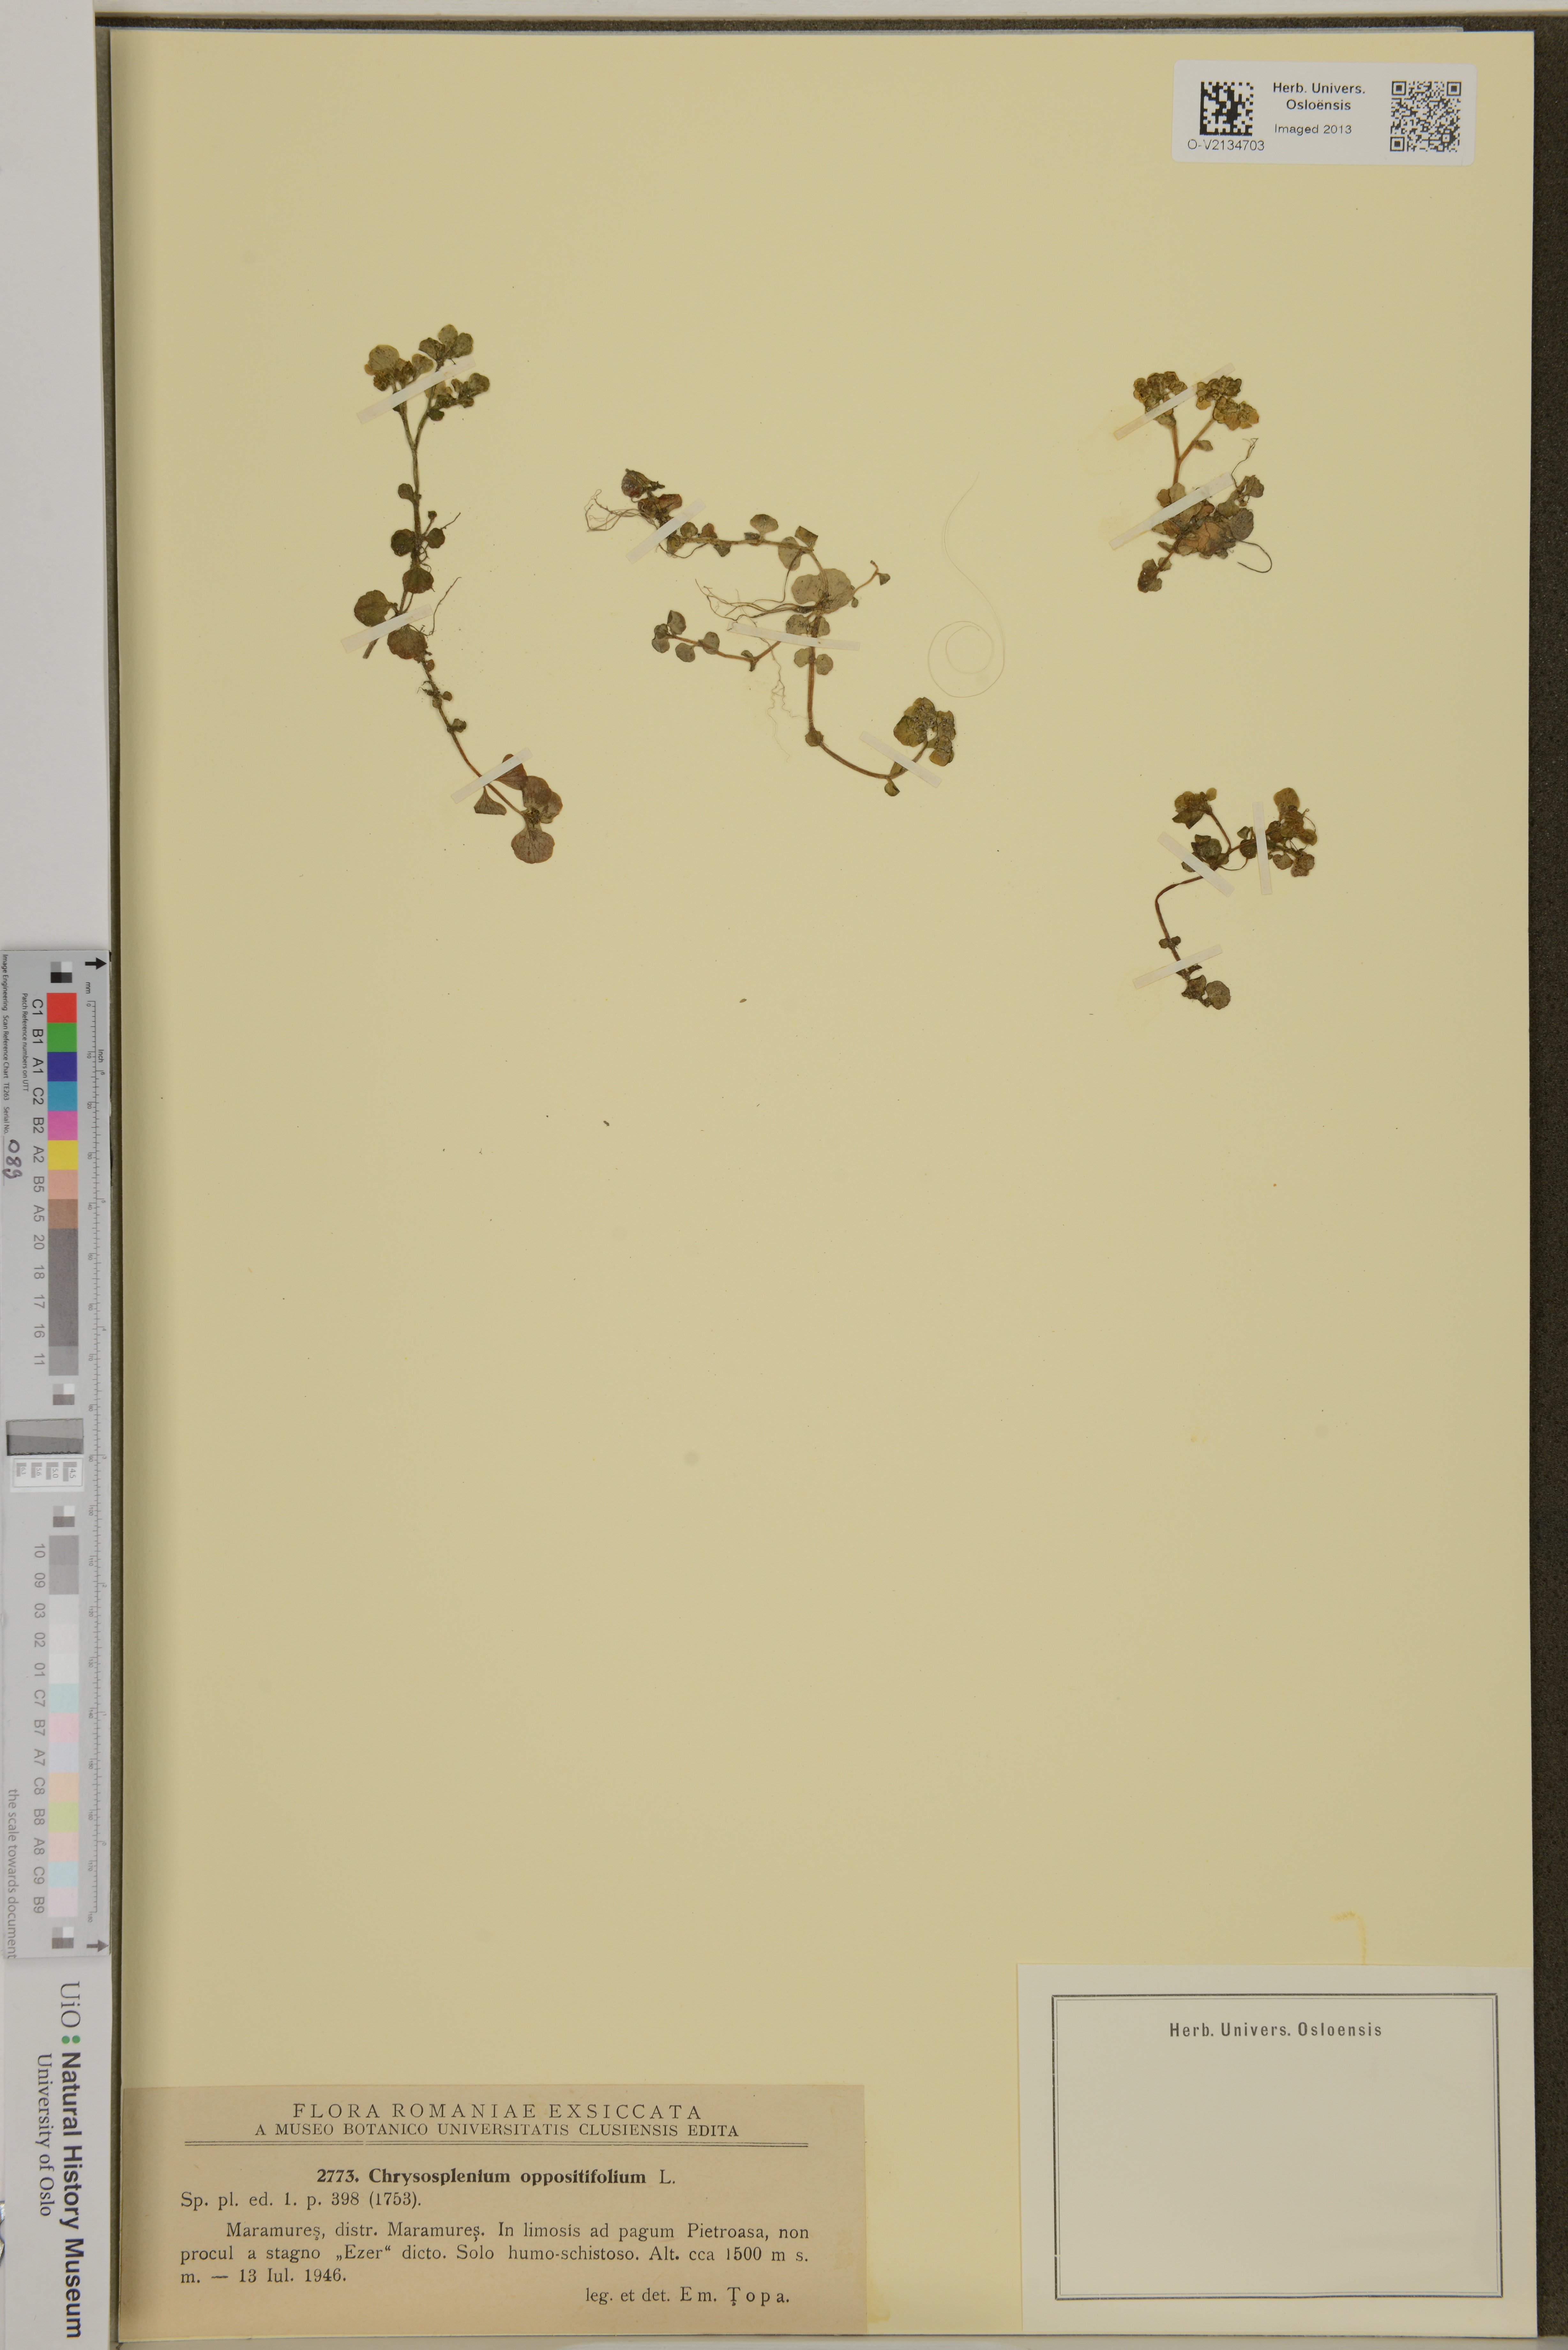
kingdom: Plantae
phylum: Tracheophyta
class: Magnoliopsida
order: Saxifragales
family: Saxifragaceae
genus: Chrysosplenium
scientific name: Chrysosplenium oppositifolium
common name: Opposite-leaved golden-saxifrage
